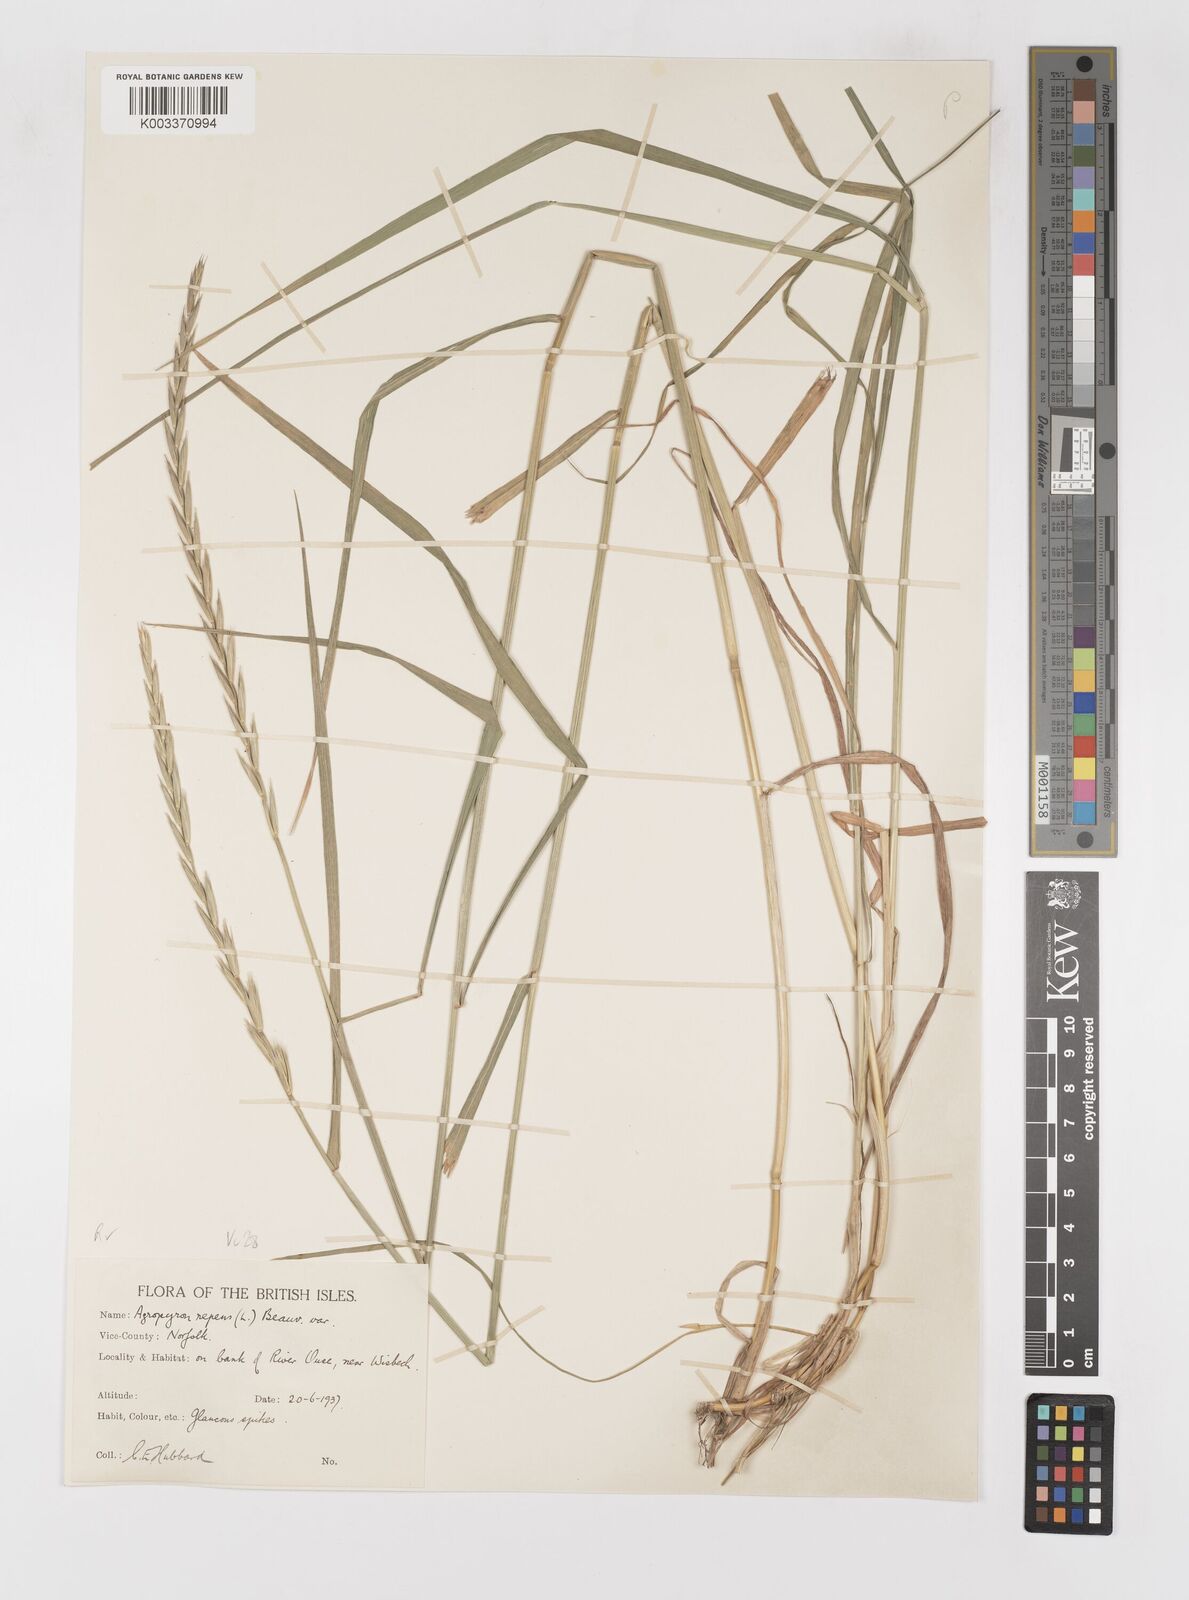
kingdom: Plantae
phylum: Tracheophyta
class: Liliopsida
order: Poales
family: Poaceae
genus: Elymus
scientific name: Elymus repens
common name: Quackgrass
